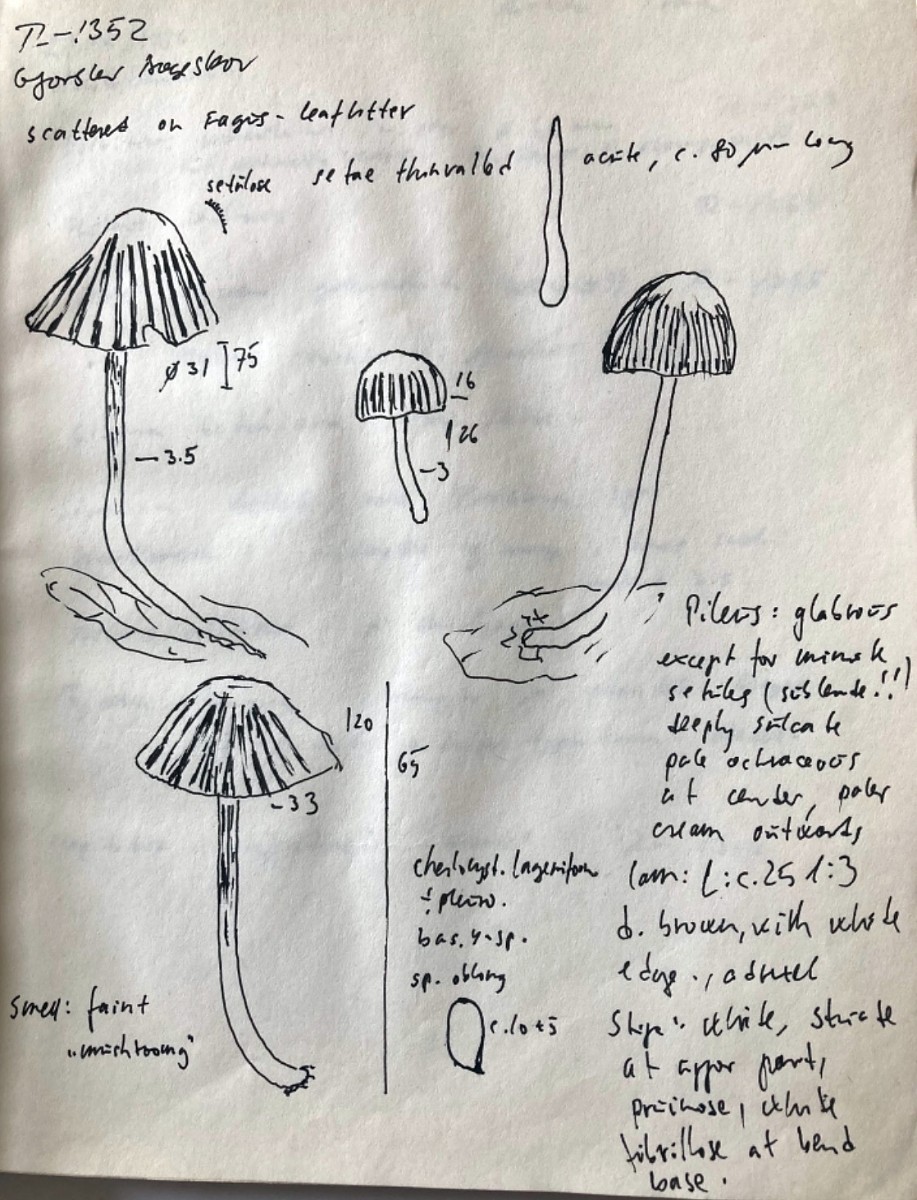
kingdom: Fungi
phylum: Basidiomycota
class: Agaricomycetes
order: Agaricales
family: Psathyrellaceae
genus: Tulosesus
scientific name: Tulosesus impatiens
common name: furet blækhat
